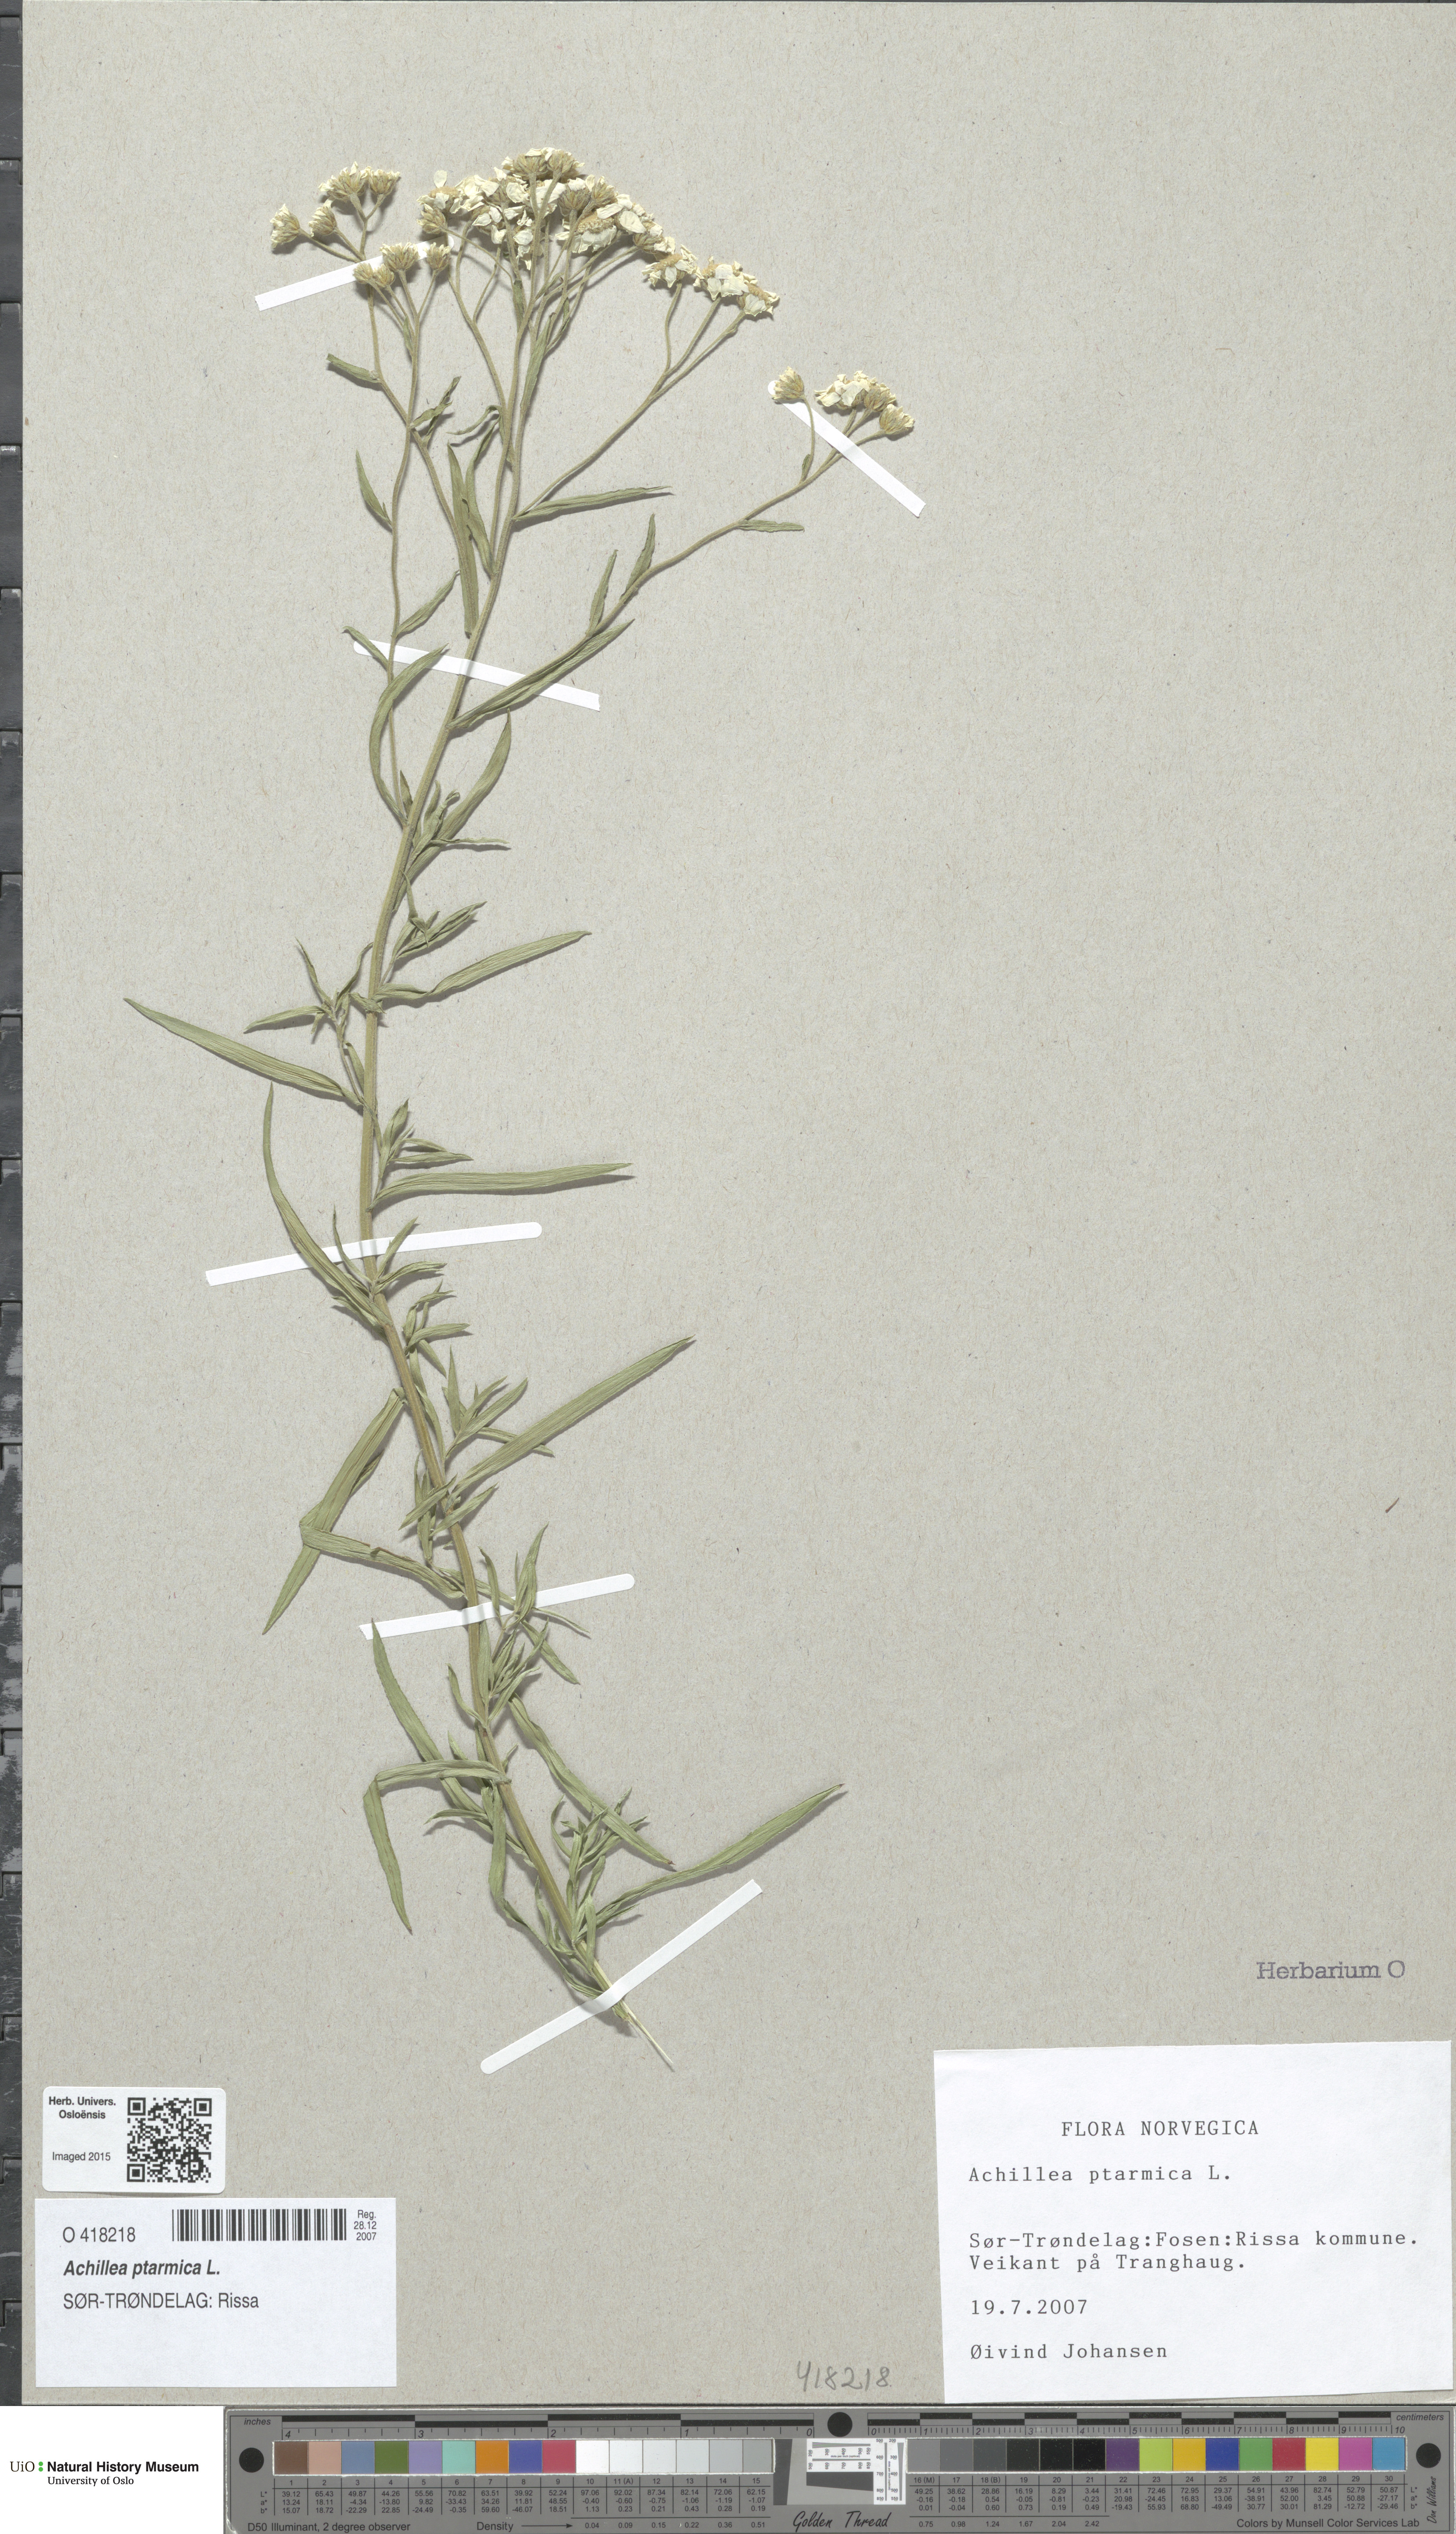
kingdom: Plantae
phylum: Tracheophyta
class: Magnoliopsida
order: Asterales
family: Asteraceae
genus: Achillea
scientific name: Achillea ptarmica
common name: Sneezeweed
